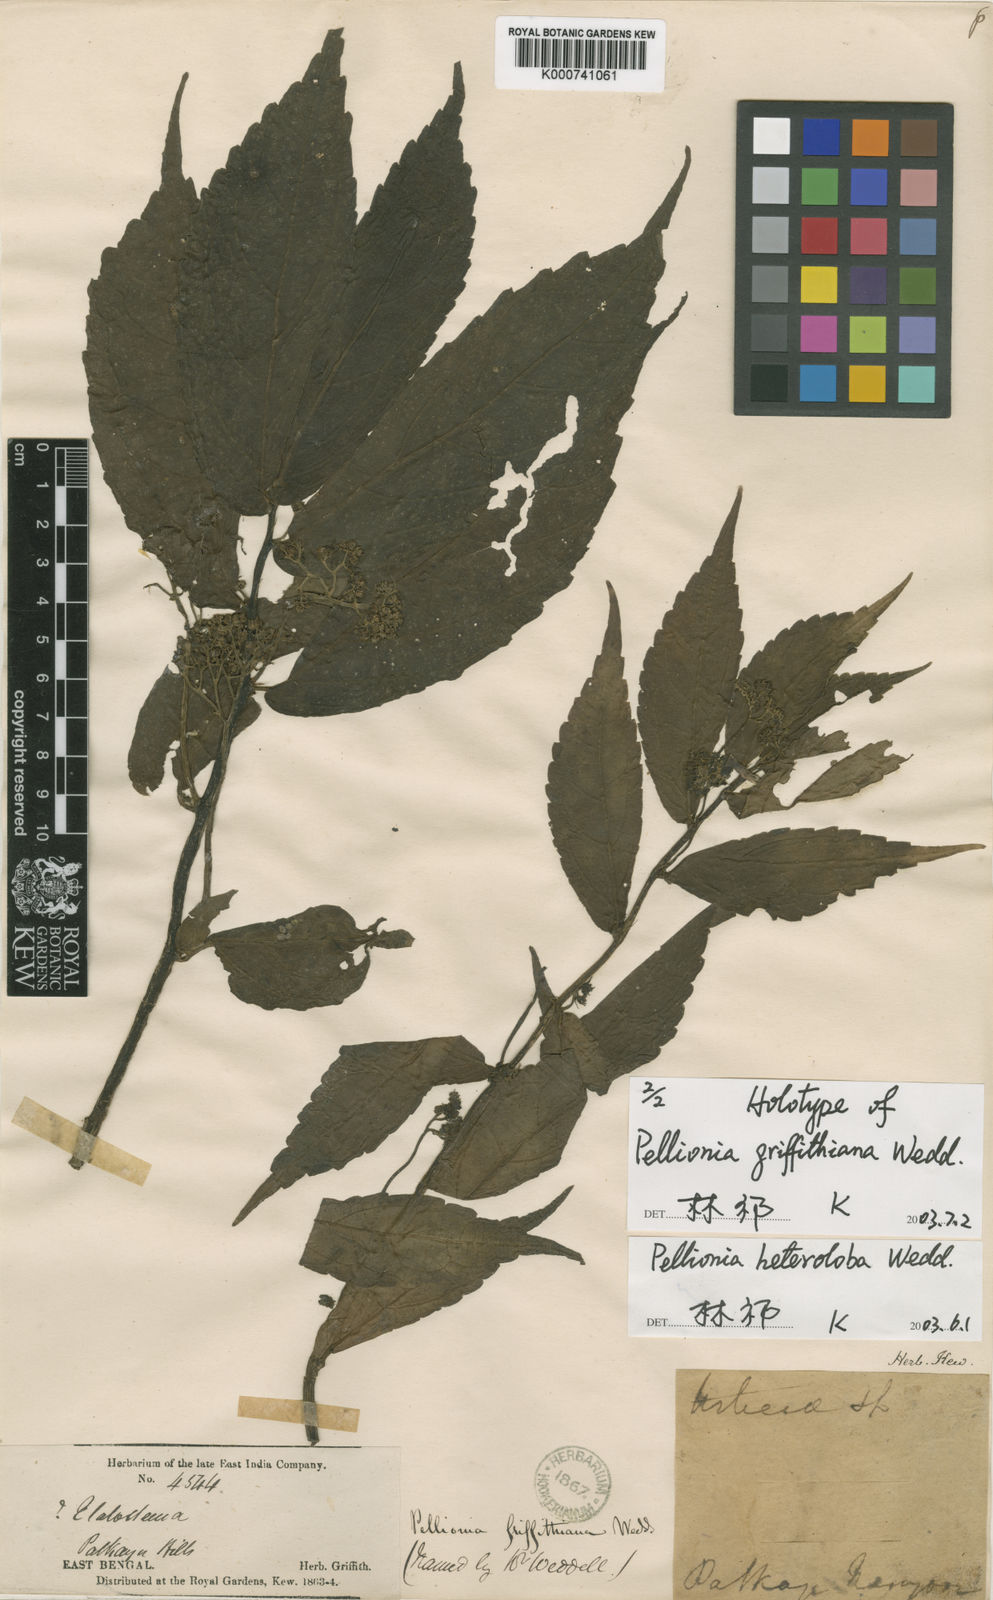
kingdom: Plantae
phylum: Tracheophyta
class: Magnoliopsida
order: Rosales
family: Urticaceae
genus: Elatostema
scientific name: Elatostema heterolobum
